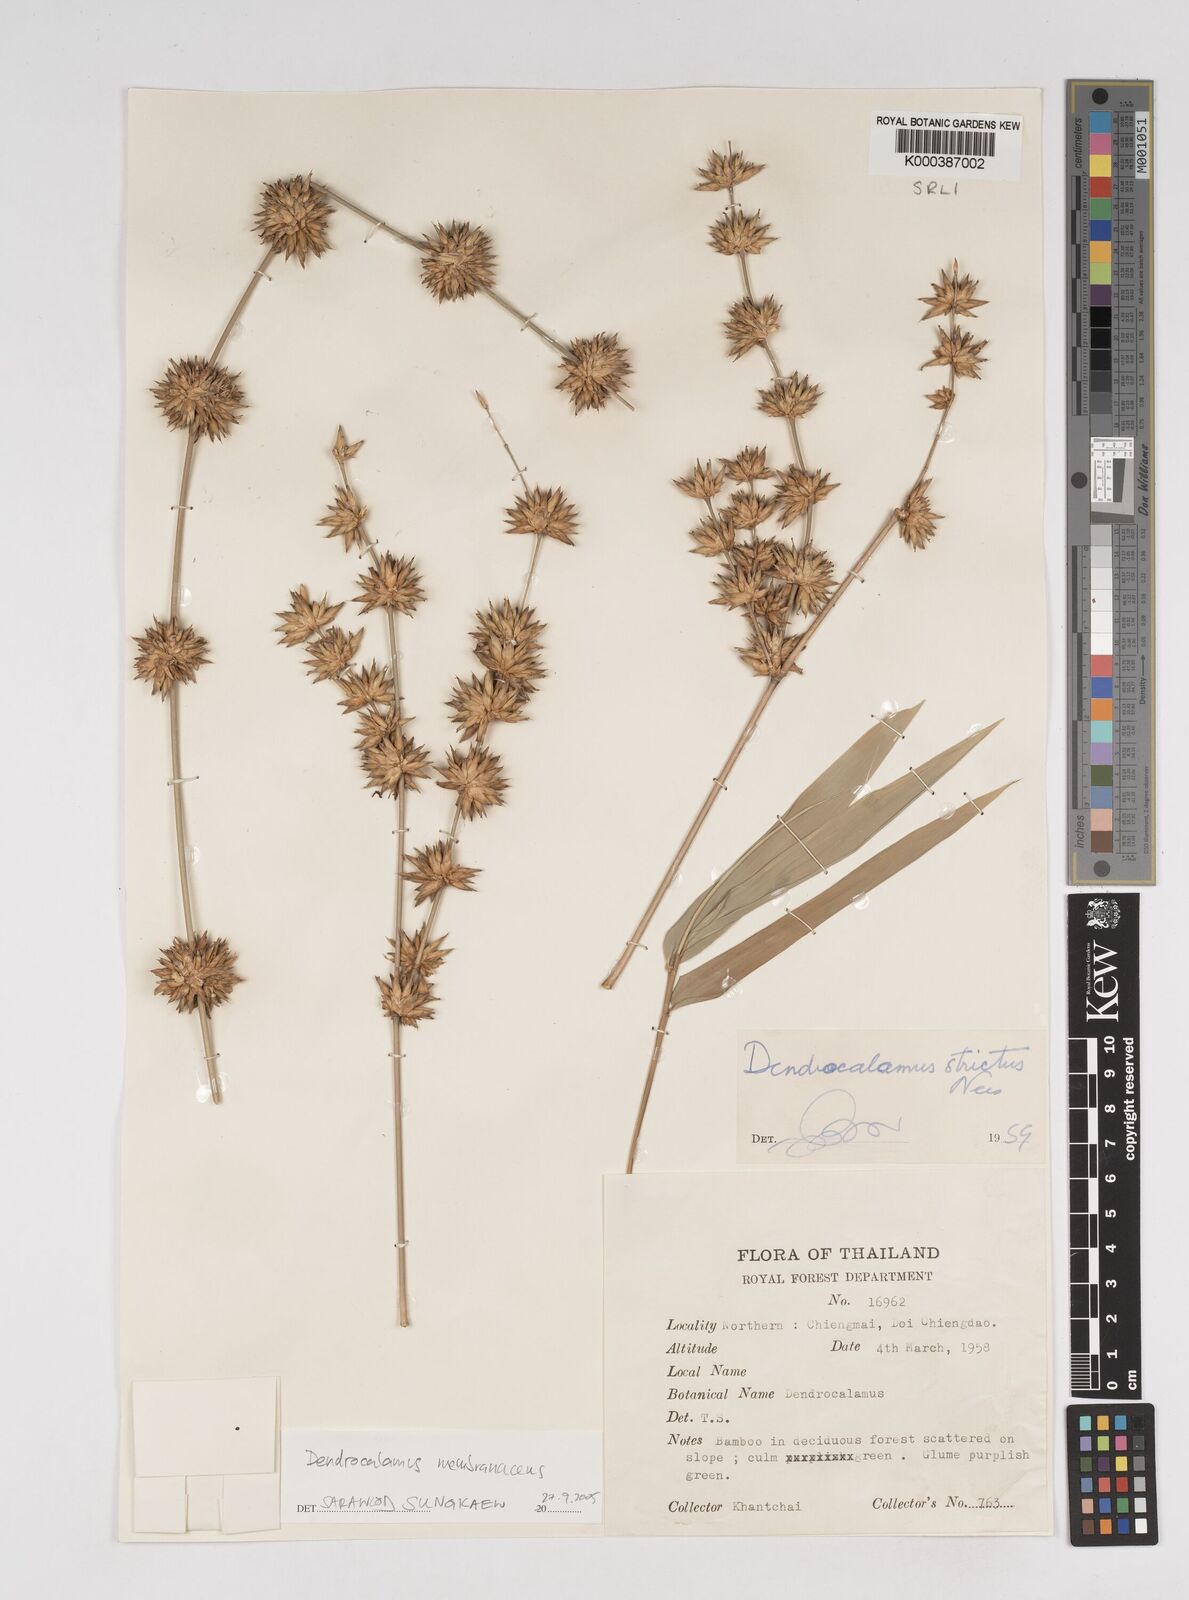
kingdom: Plantae
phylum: Tracheophyta
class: Liliopsida
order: Poales
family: Poaceae
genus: Dendrocalamus
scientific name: Dendrocalamus membranaceus
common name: White bamboo
